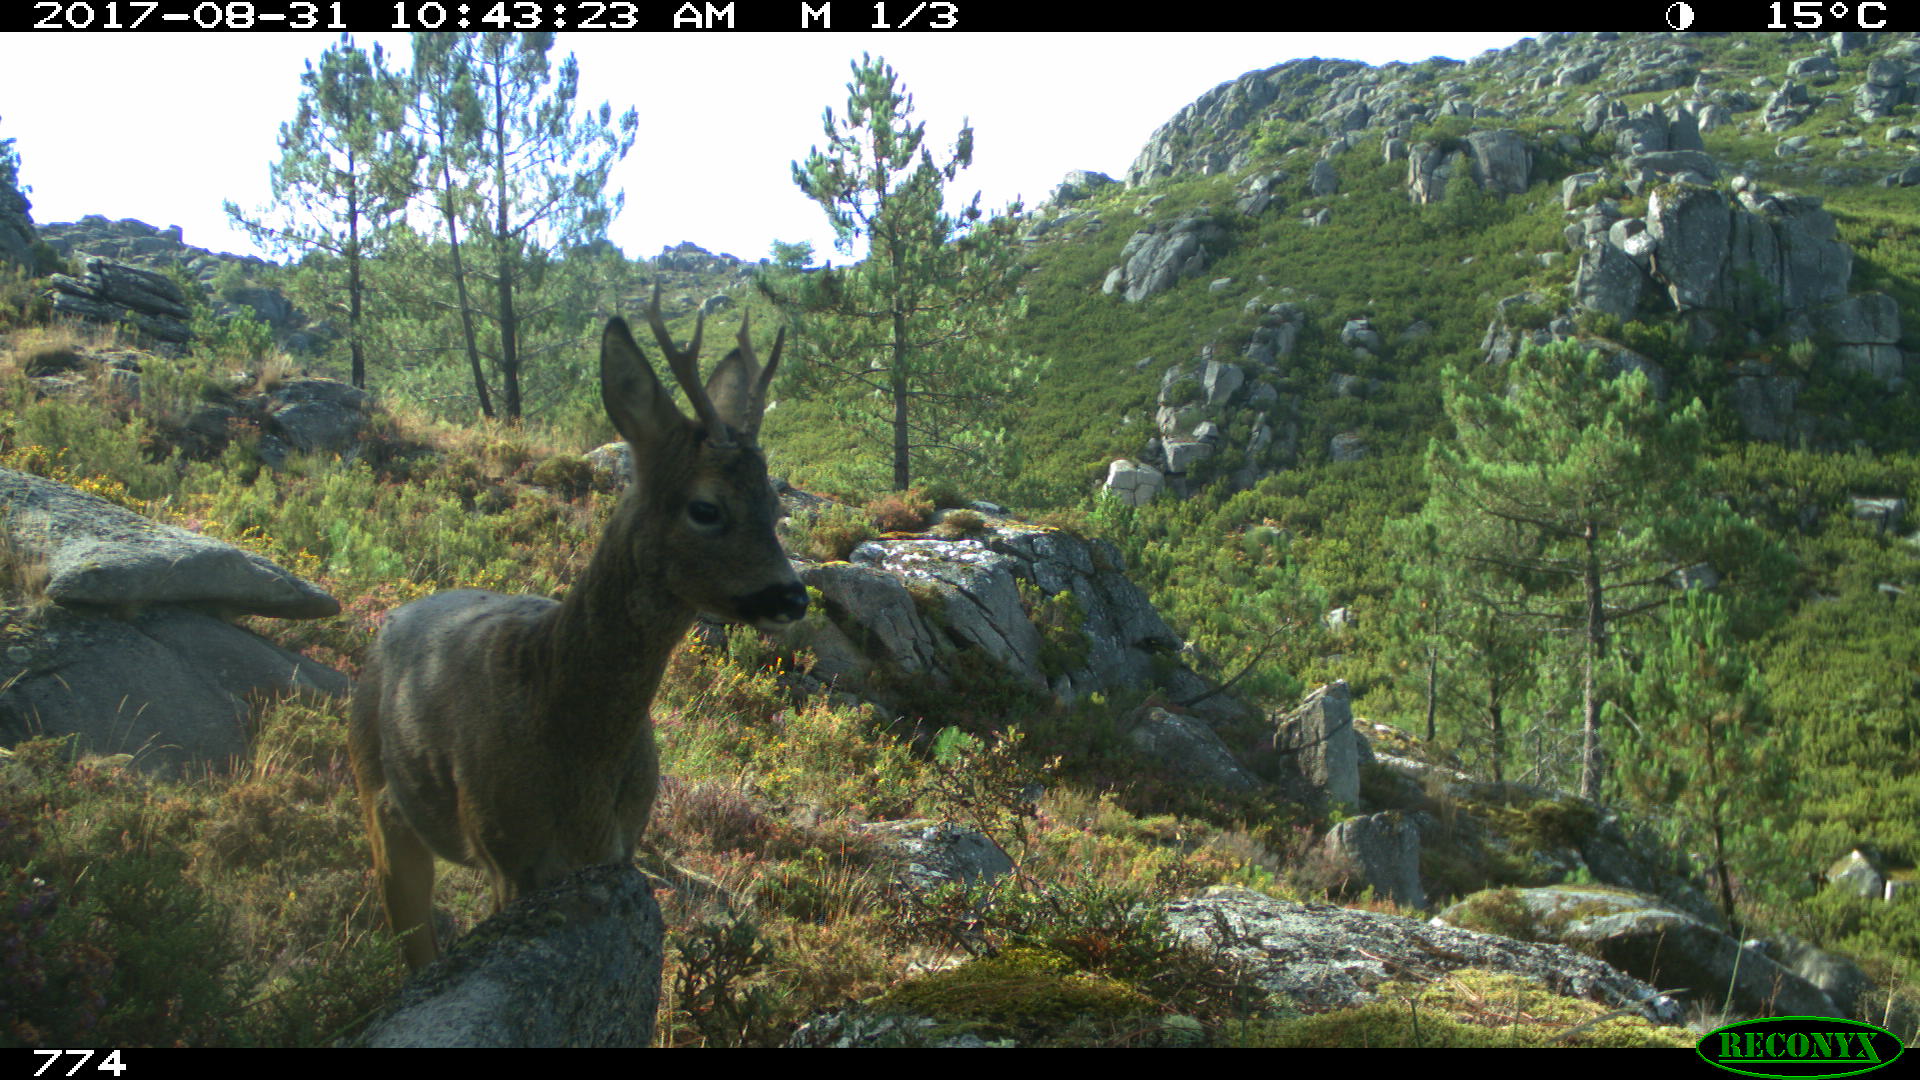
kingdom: Animalia
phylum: Chordata
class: Mammalia
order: Artiodactyla
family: Cervidae
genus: Capreolus
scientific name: Capreolus capreolus
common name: Western roe deer
